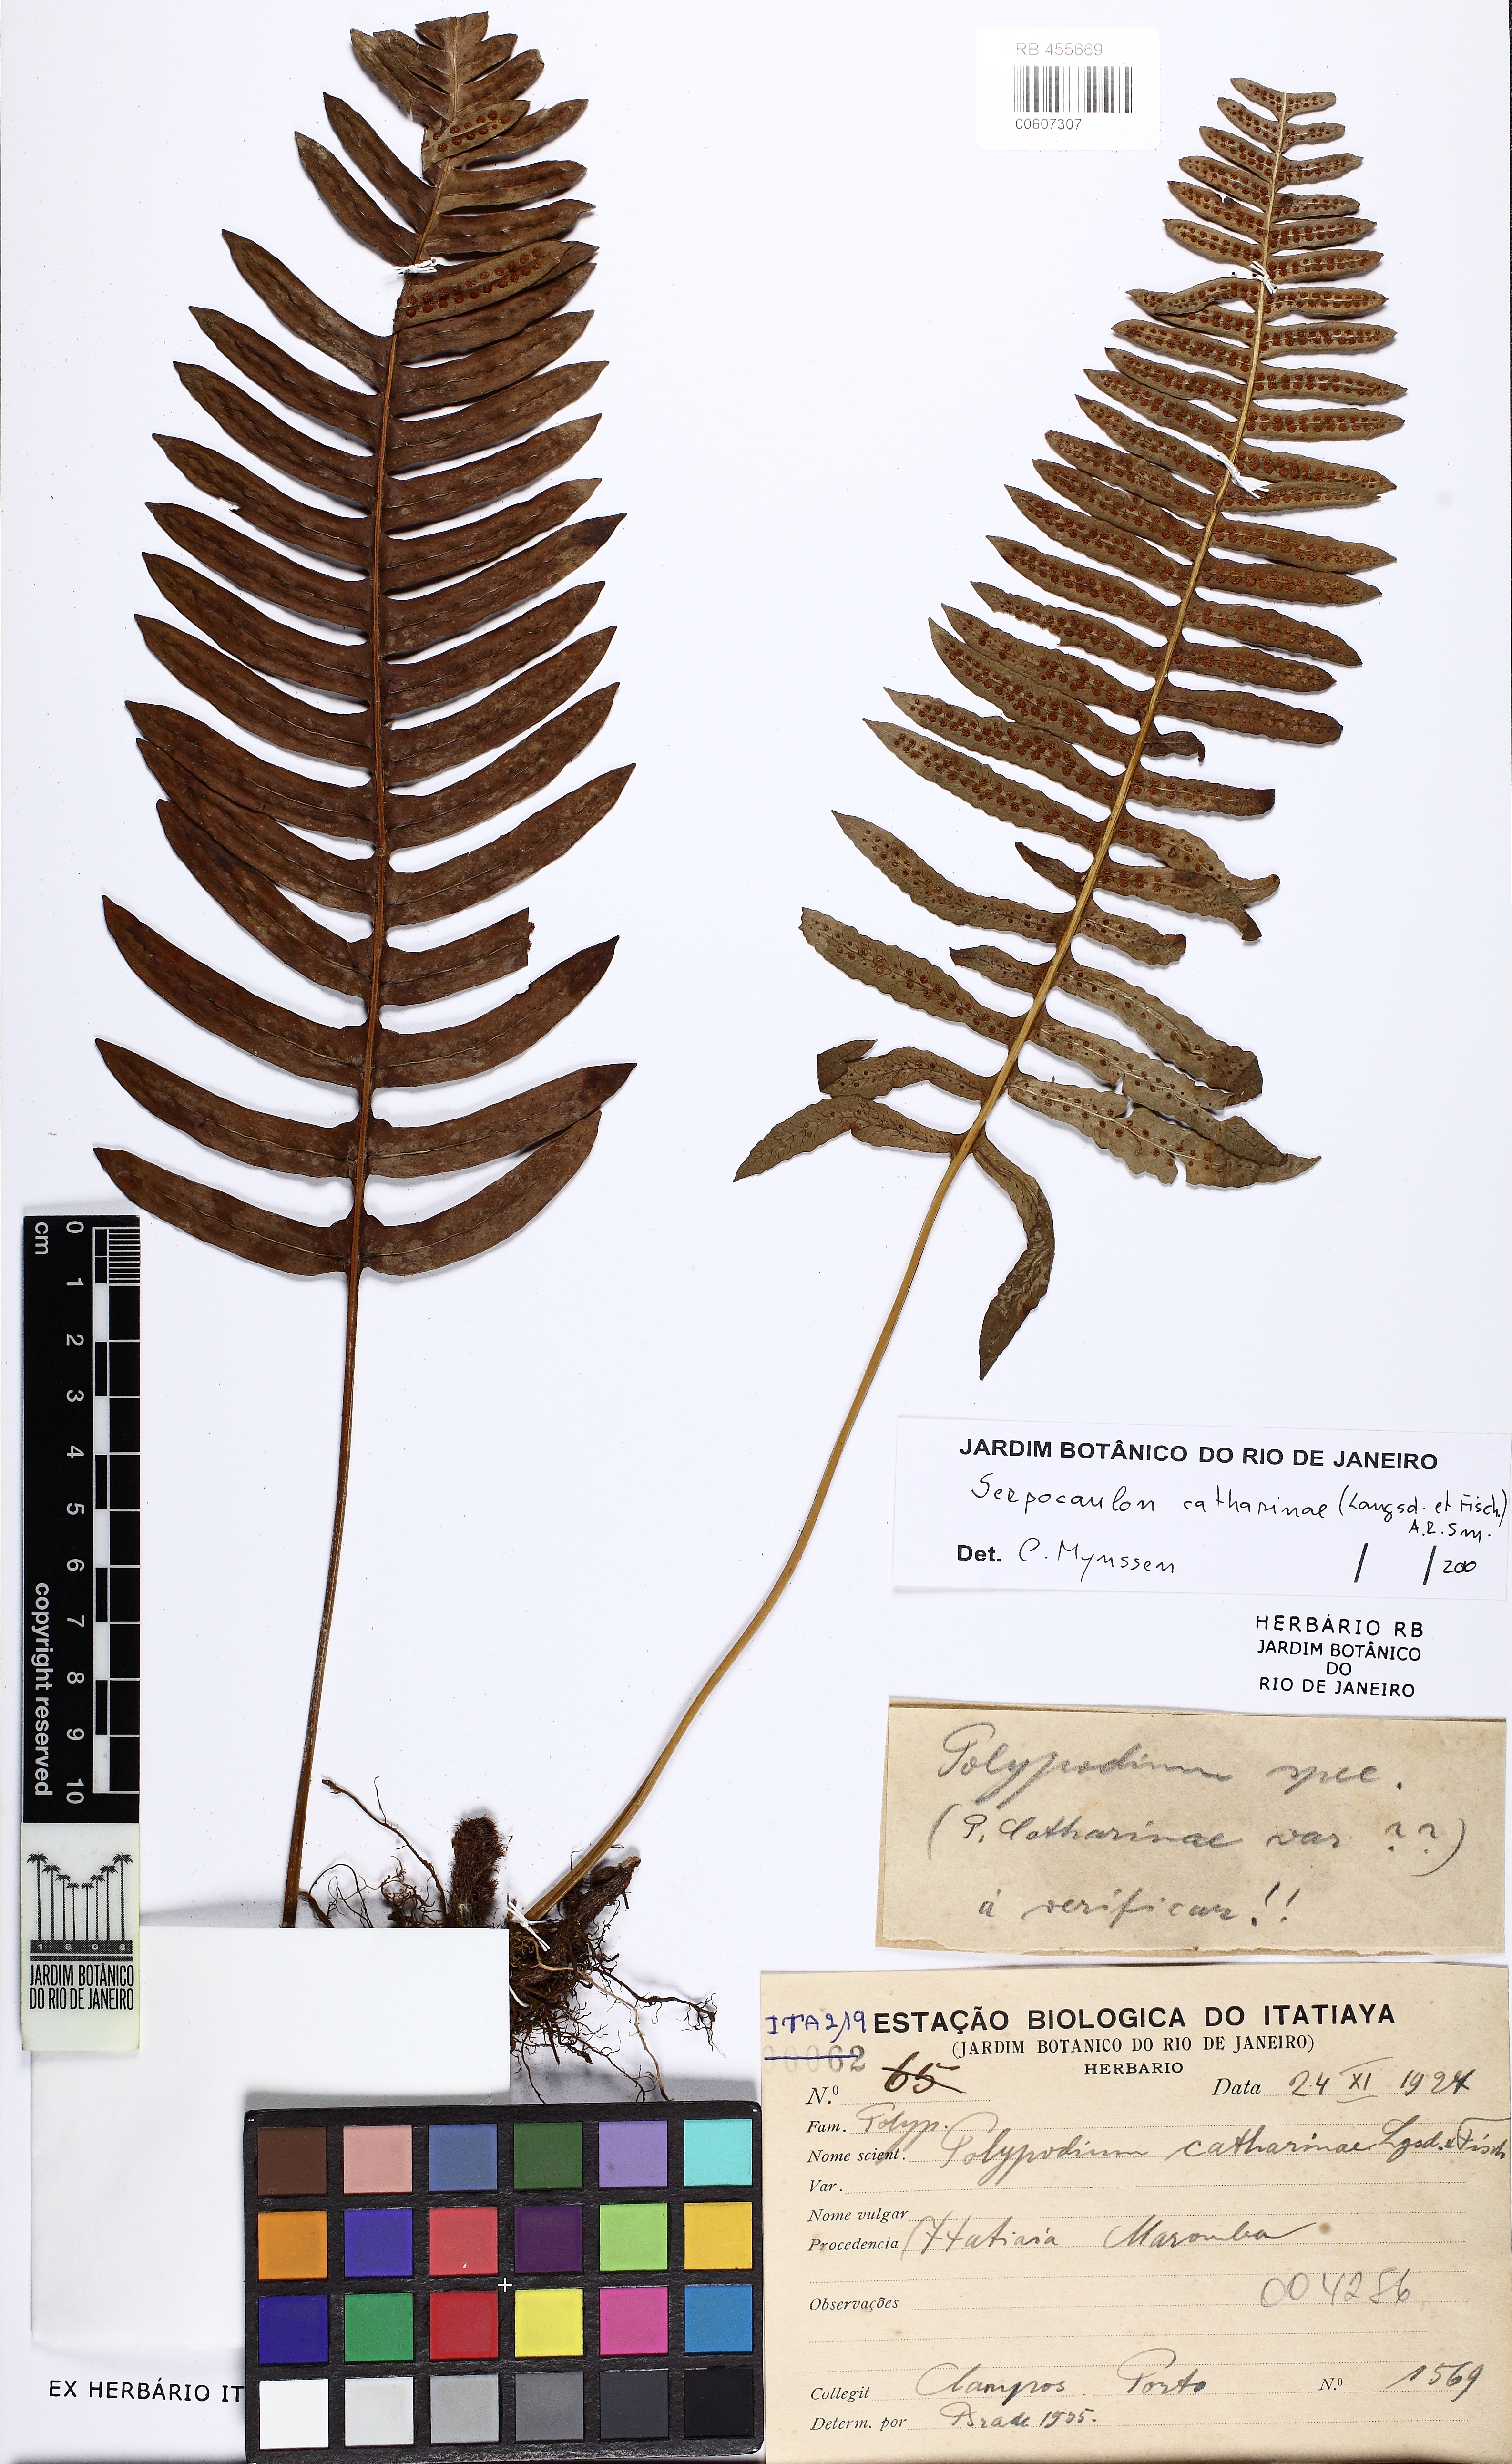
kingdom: Plantae
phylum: Tracheophyta
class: Polypodiopsida
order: Polypodiales
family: Polypodiaceae
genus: Serpocaulon
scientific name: Serpocaulon catharinae
